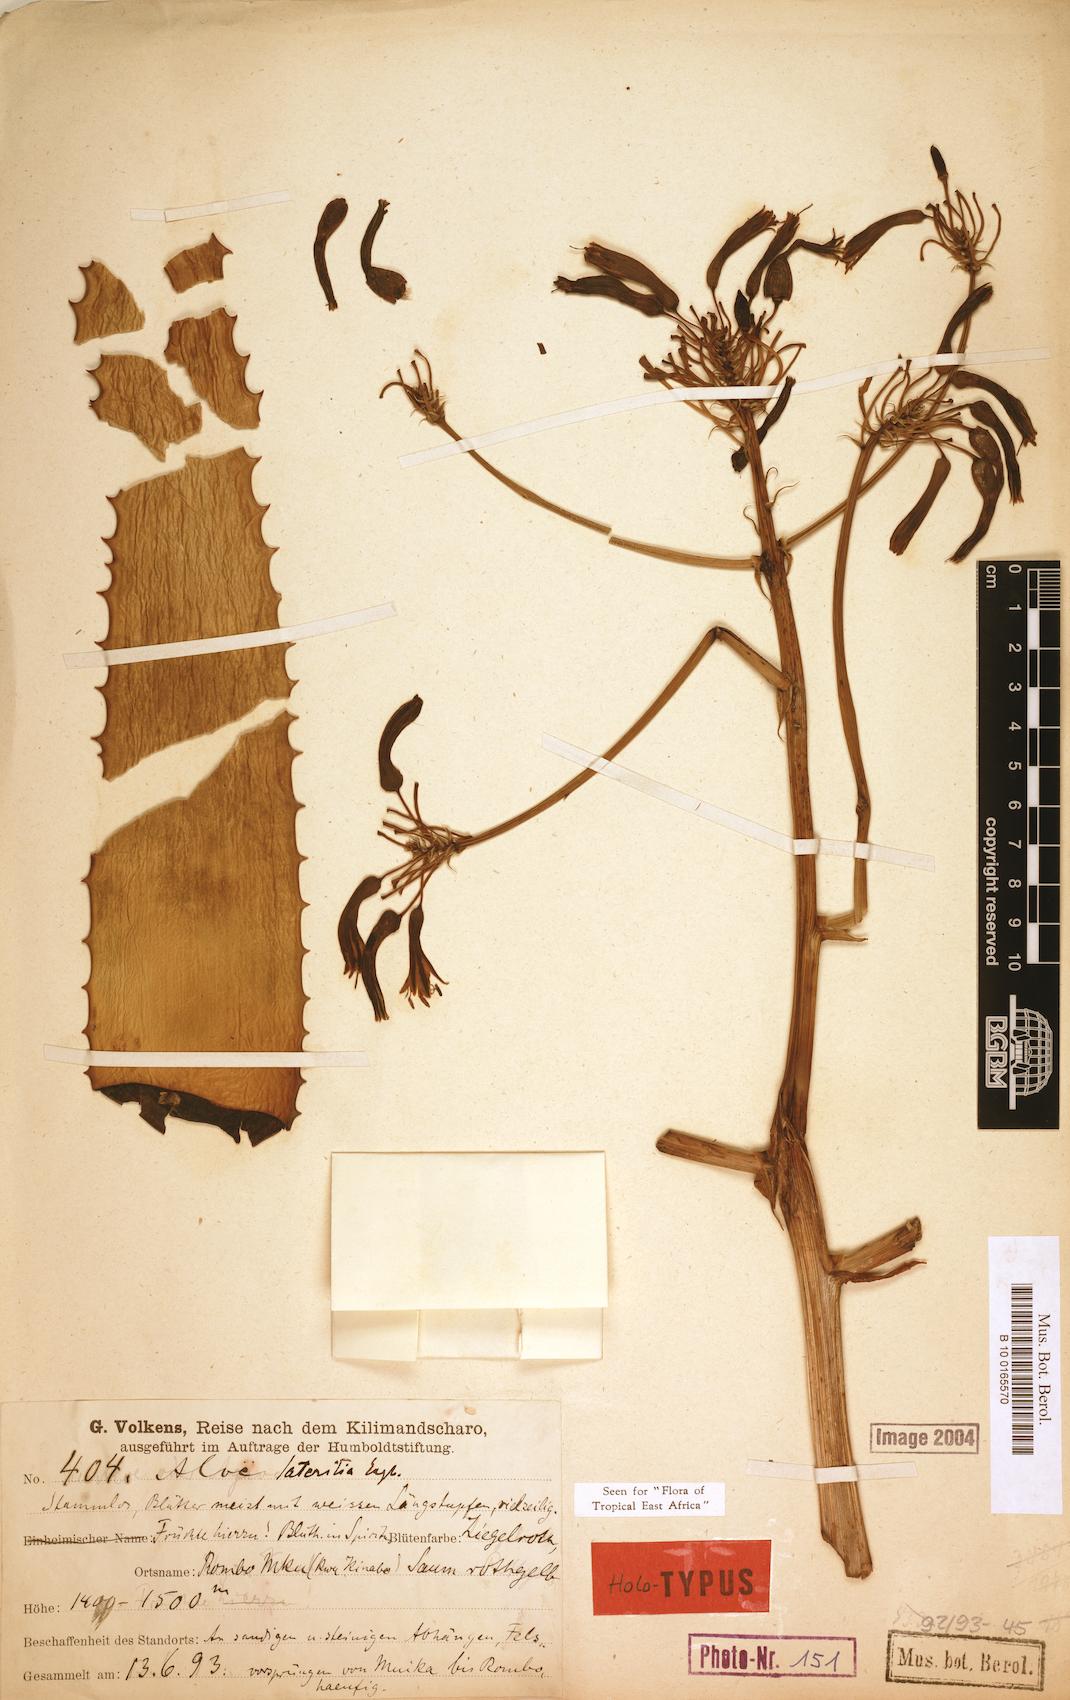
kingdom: Plantae
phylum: Tracheophyta
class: Liliopsida
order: Asparagales
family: Asphodelaceae
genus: Aloe
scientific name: Aloe lateritia
